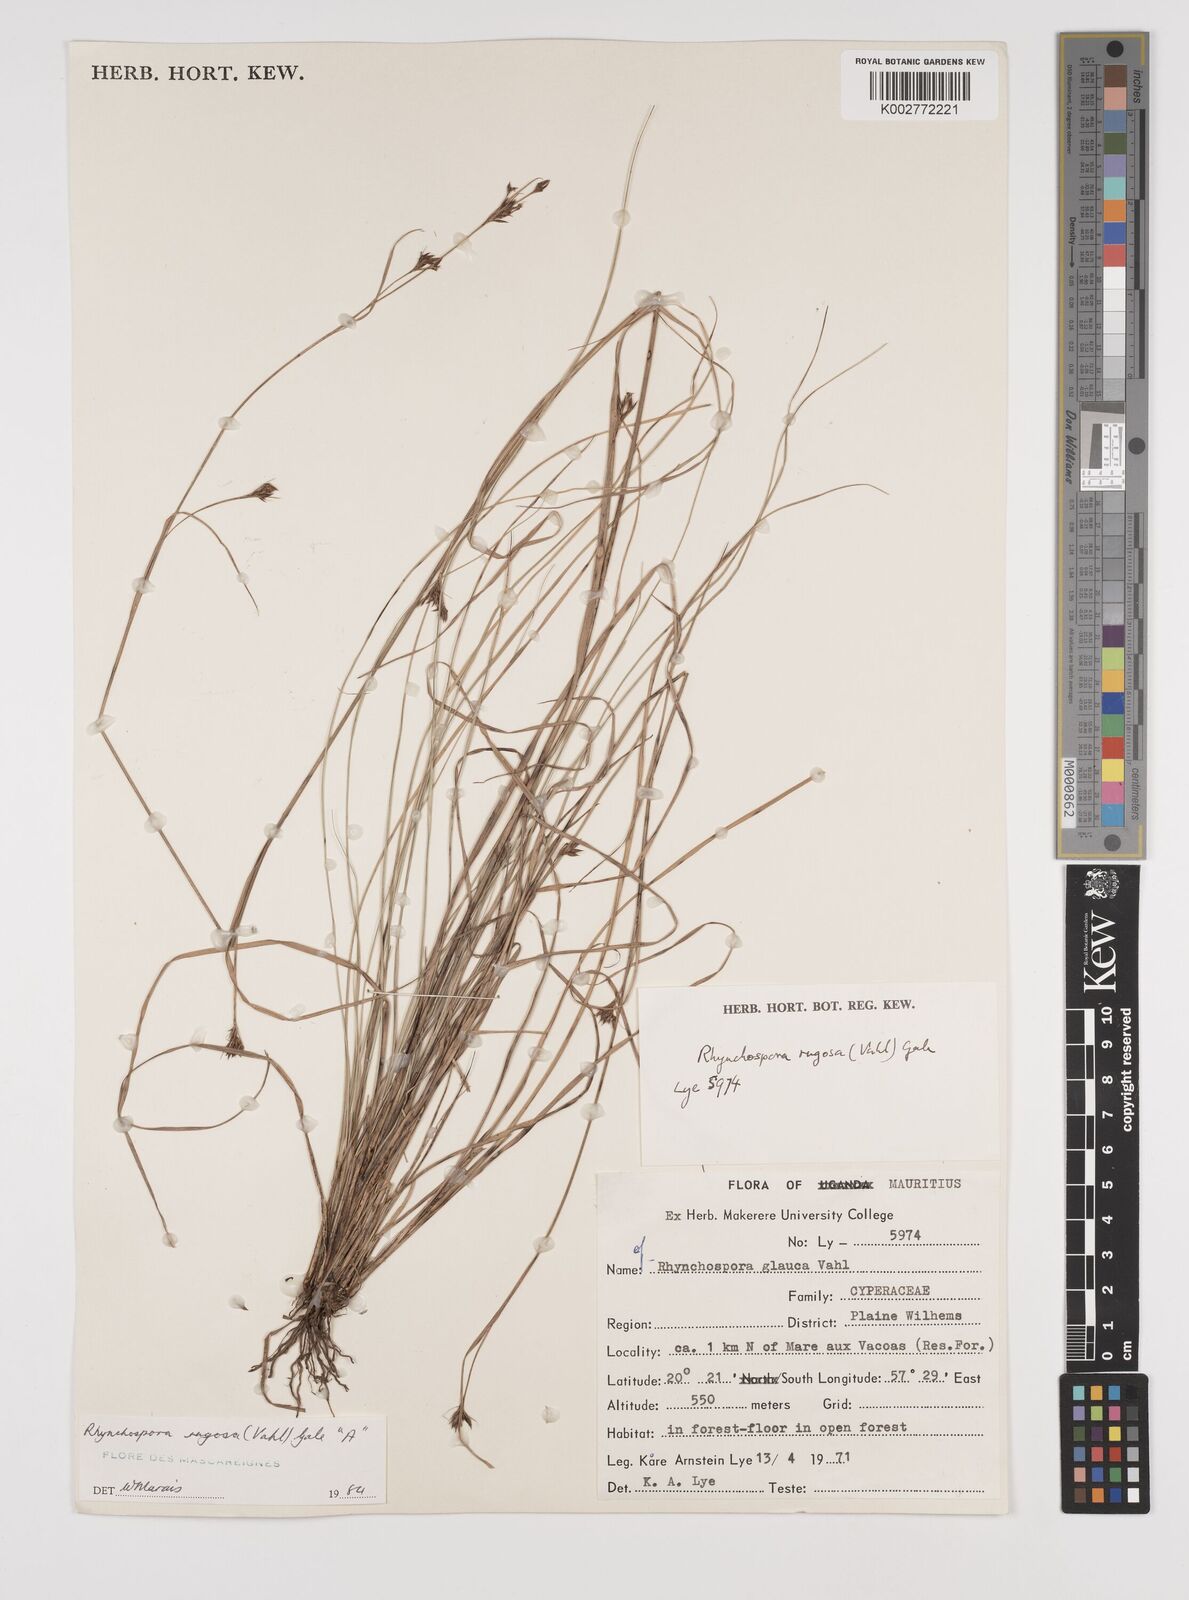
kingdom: Plantae
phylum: Tracheophyta
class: Liliopsida
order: Poales
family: Cyperaceae
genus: Rhynchospora
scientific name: Rhynchospora rugosa
